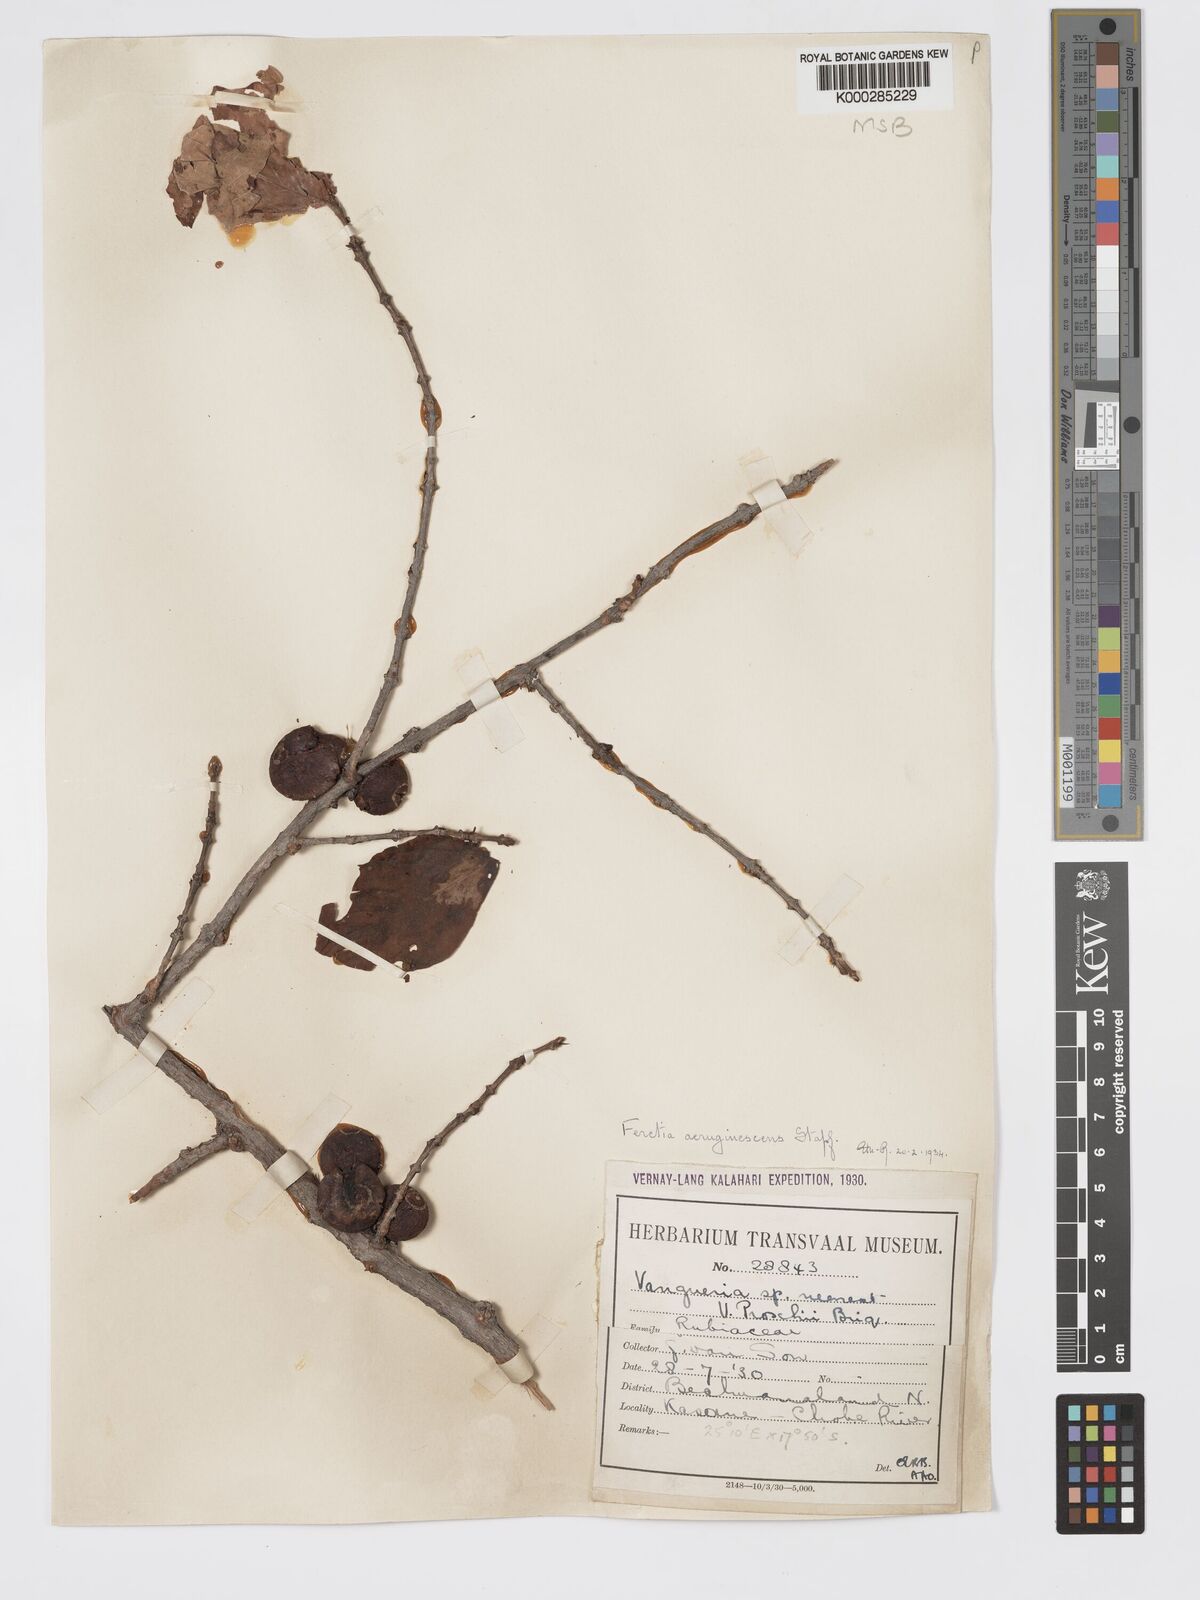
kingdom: Plantae
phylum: Tracheophyta
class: Magnoliopsida
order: Gentianales
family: Rubiaceae
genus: Feretia
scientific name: Feretia aeruginescens
